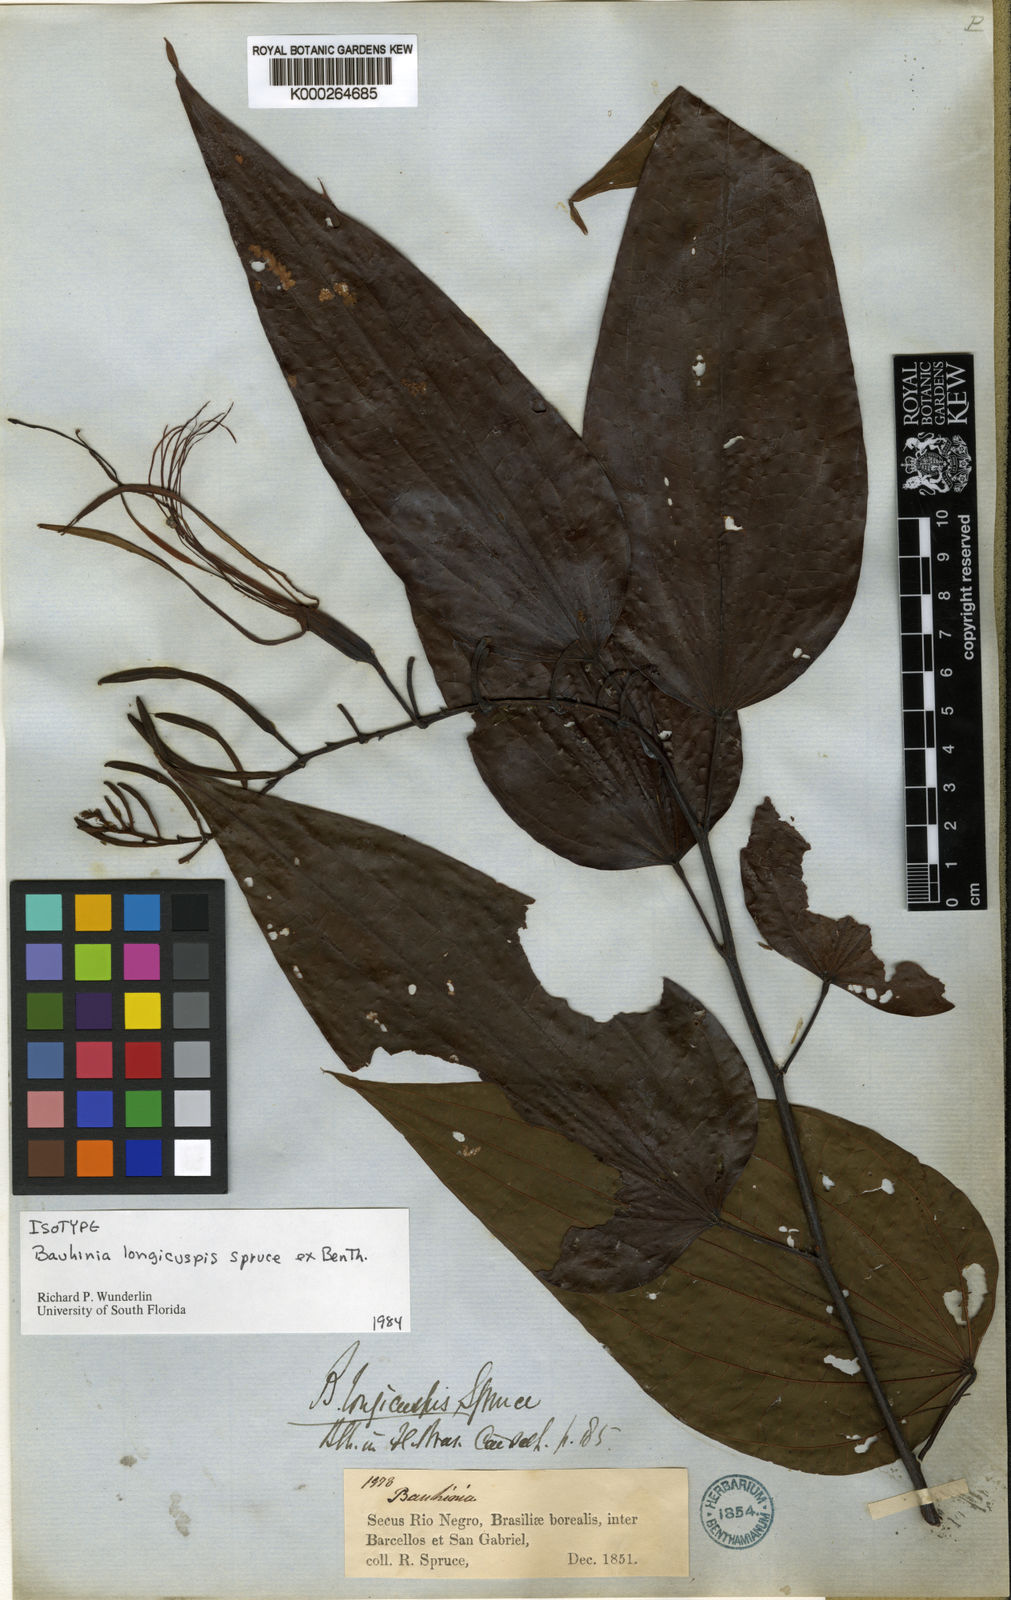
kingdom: Plantae
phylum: Tracheophyta
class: Magnoliopsida
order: Fabales
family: Fabaceae
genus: Bauhinia
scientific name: Bauhinia
